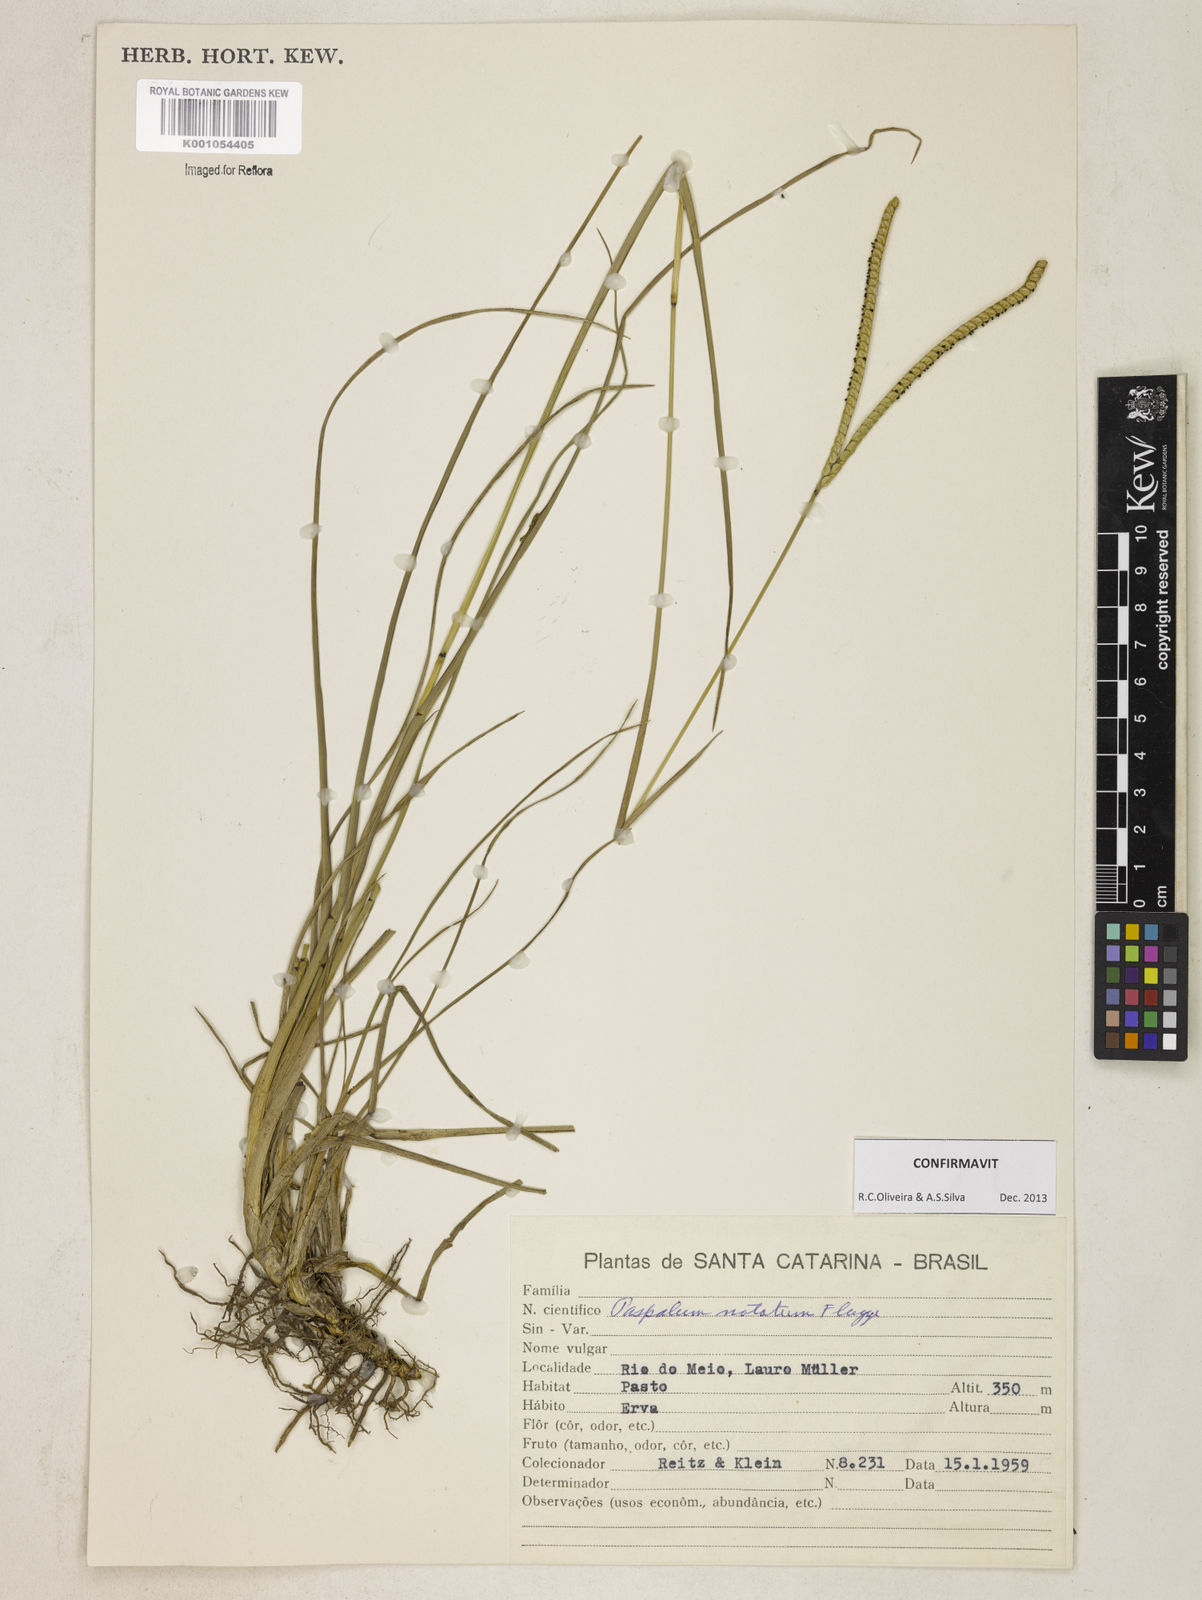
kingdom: Plantae
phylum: Tracheophyta
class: Liliopsida
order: Poales
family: Poaceae
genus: Paspalum
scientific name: Paspalum
